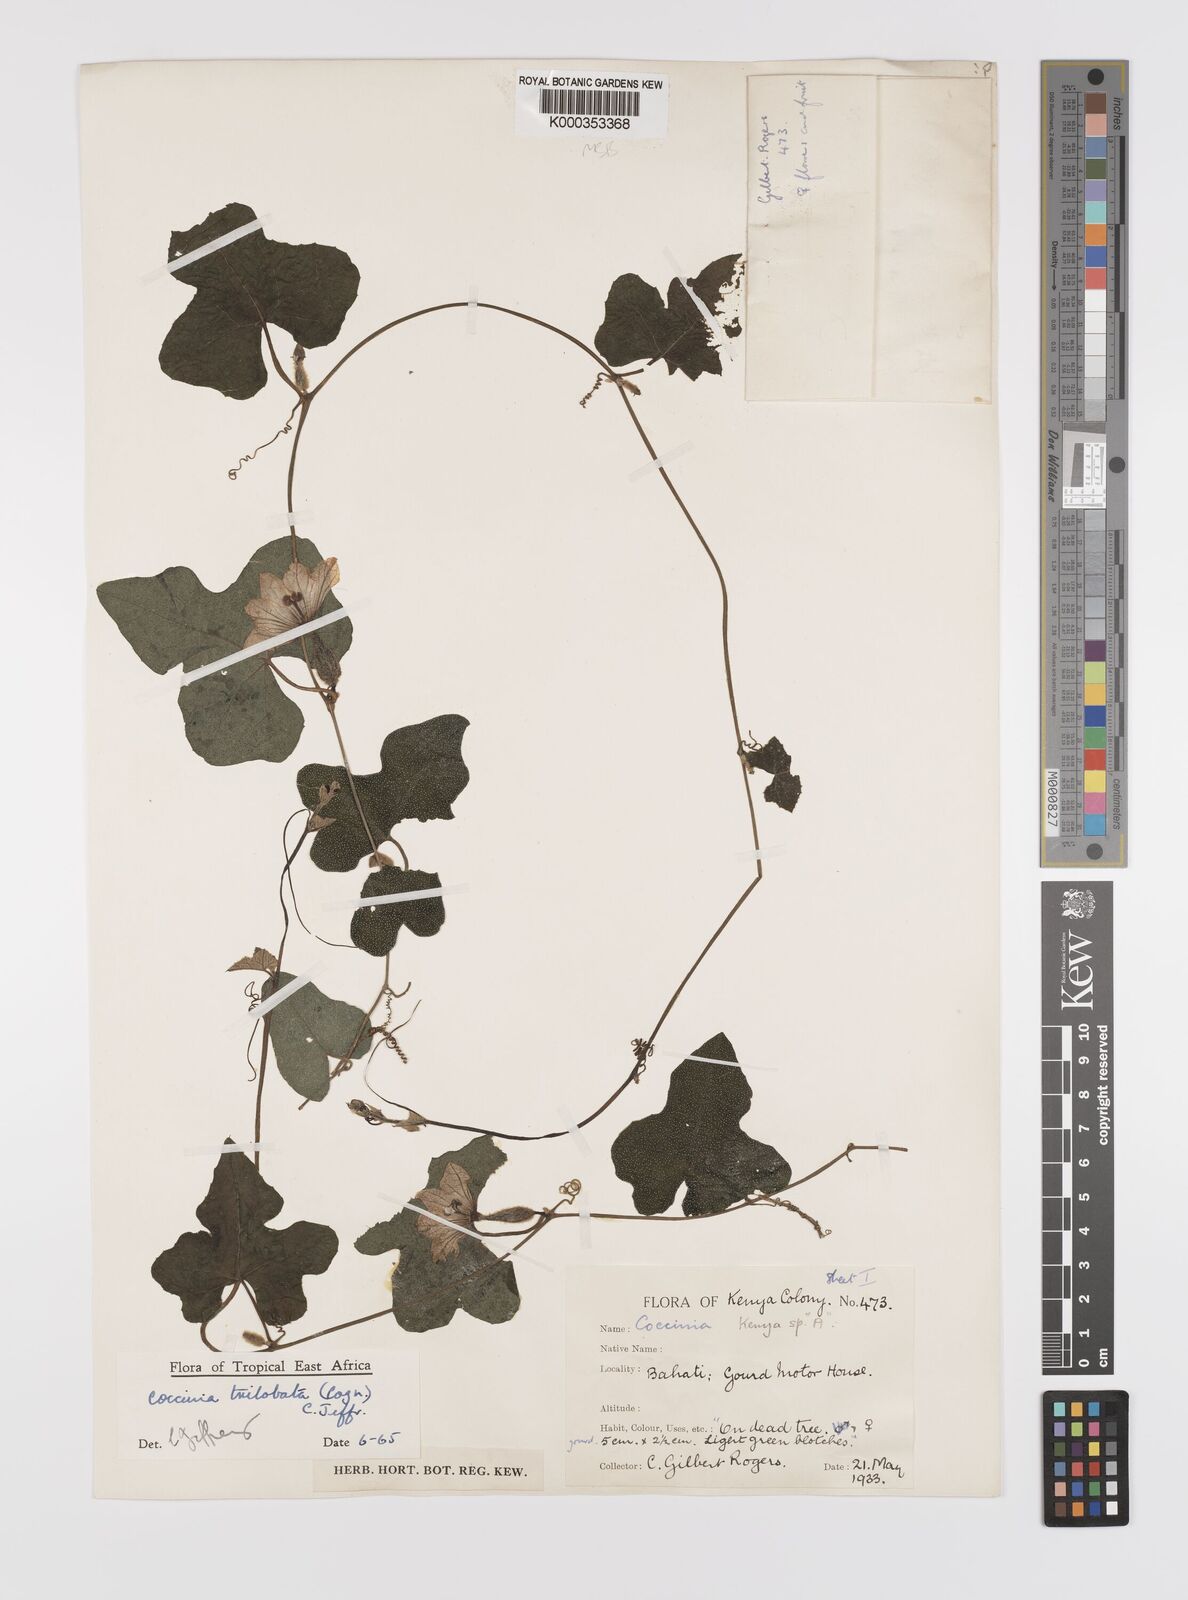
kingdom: Plantae
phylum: Tracheophyta
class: Magnoliopsida
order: Cucurbitales
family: Cucurbitaceae
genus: Coccinia
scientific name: Coccinia trilobata
